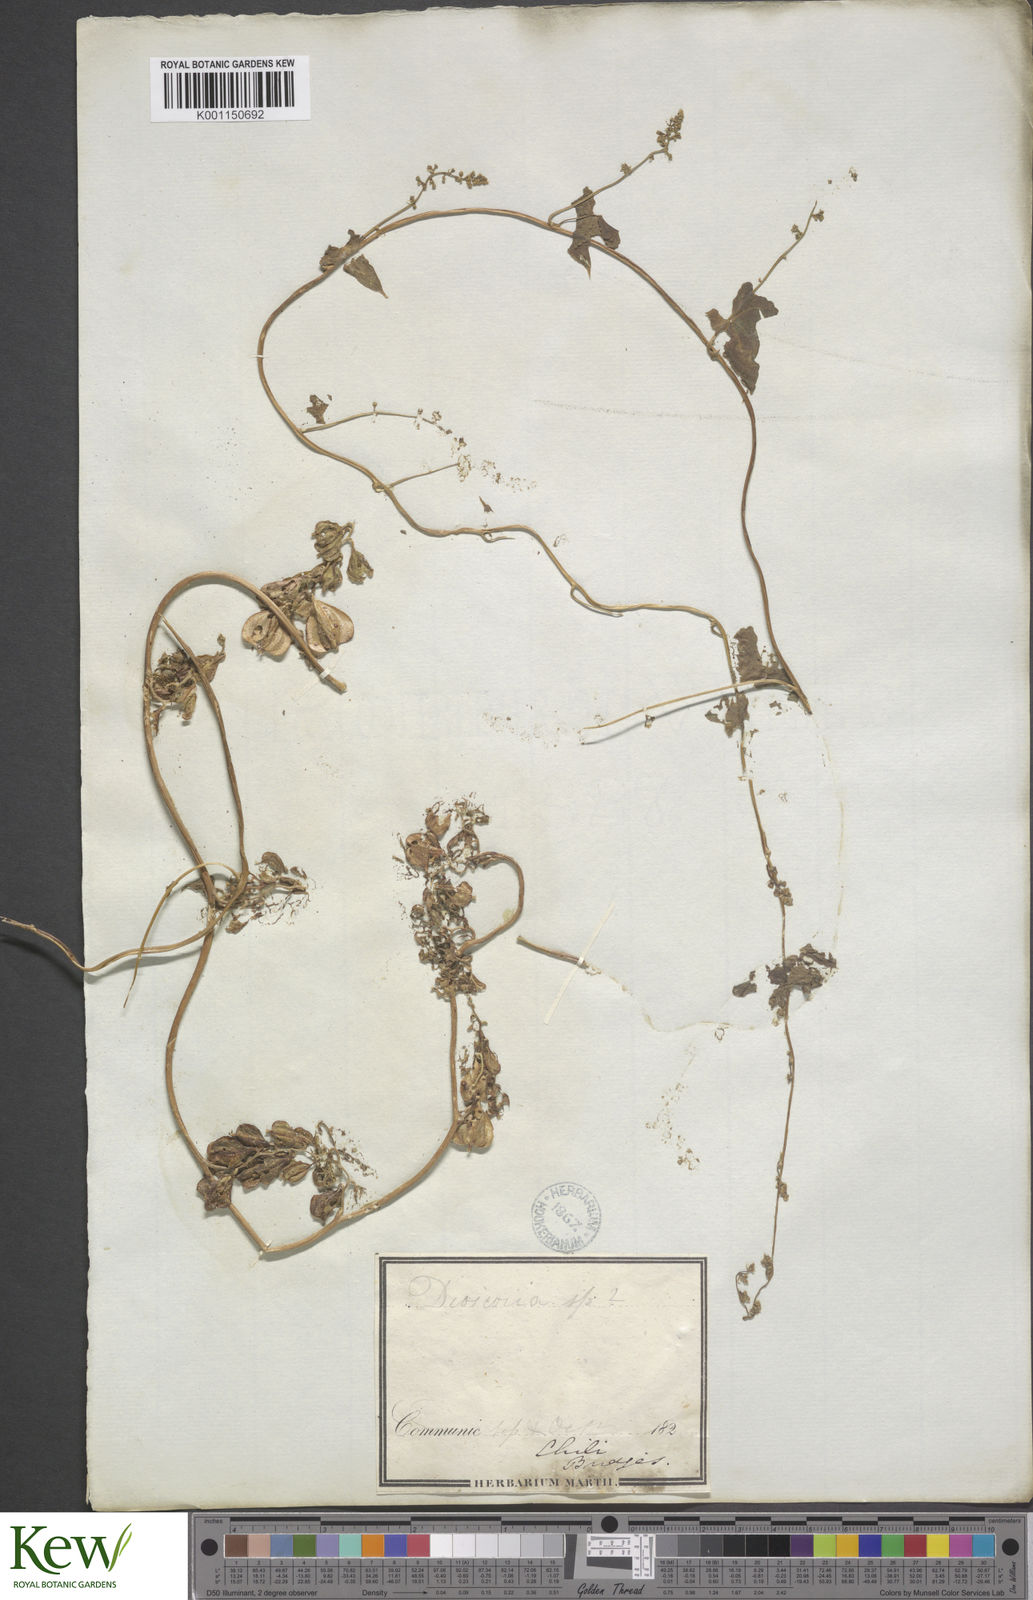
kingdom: Plantae
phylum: Tracheophyta
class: Liliopsida
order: Dioscoreales
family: Dioscoreaceae
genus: Dioscorea
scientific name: Dioscorea bryoniifolia
